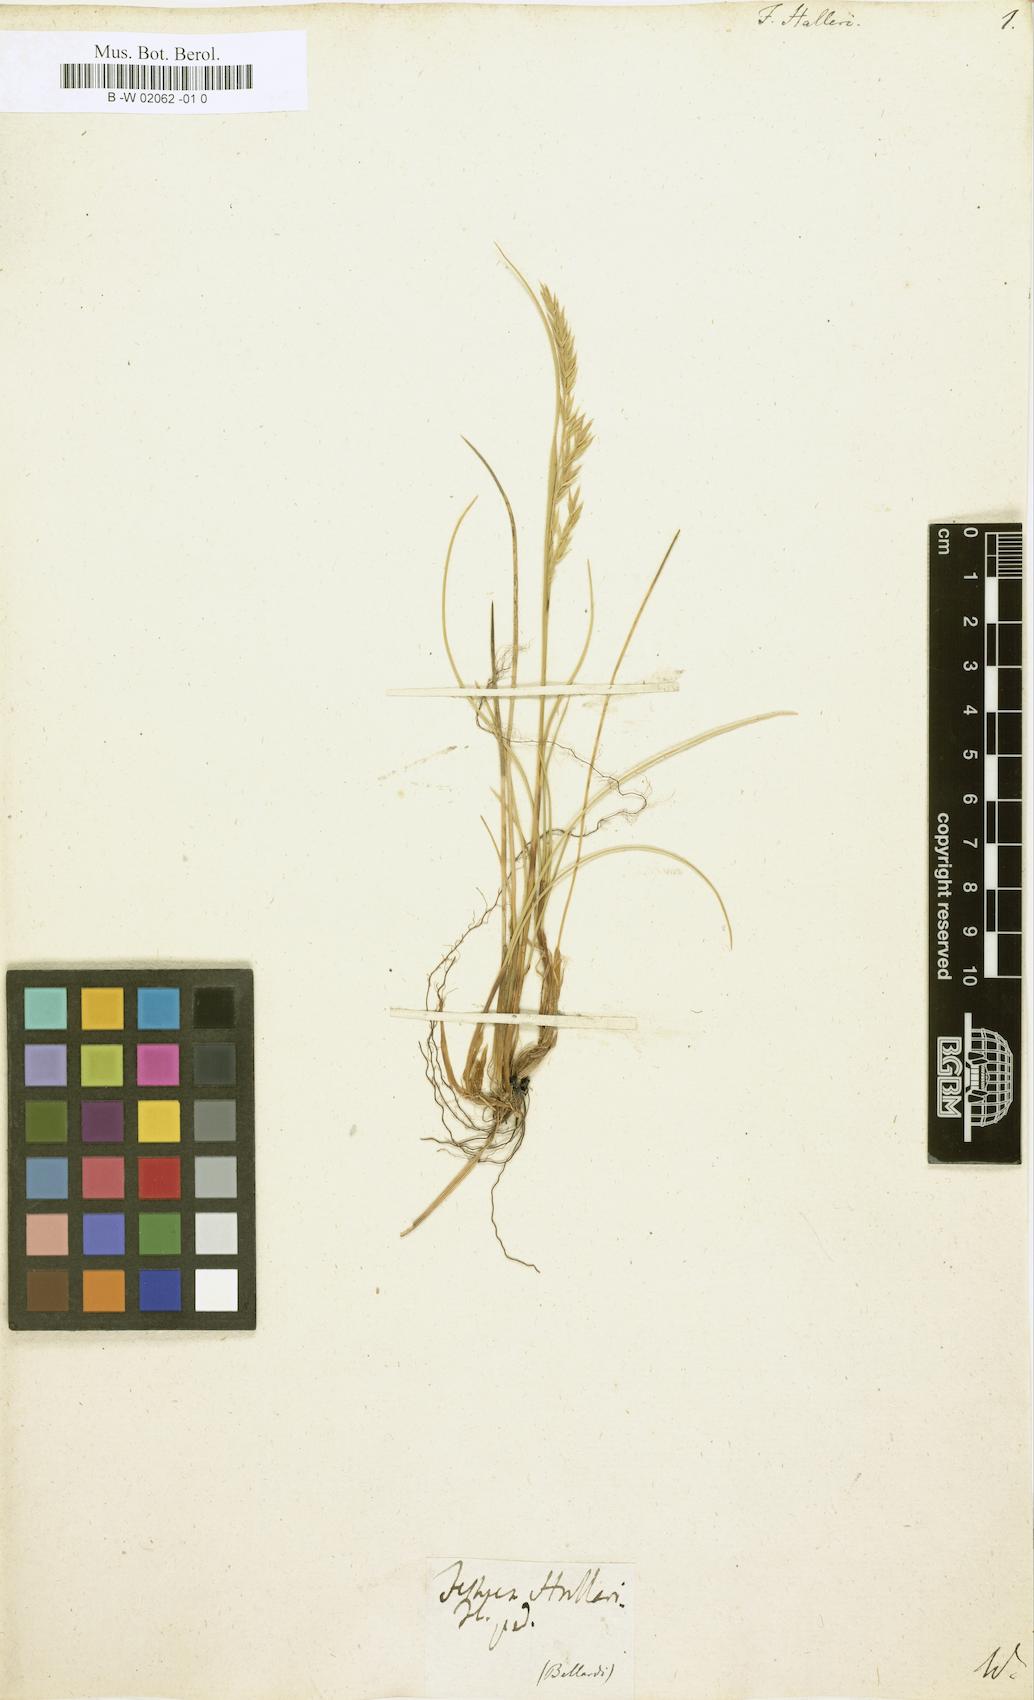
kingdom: Plantae
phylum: Tracheophyta
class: Liliopsida
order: Poales
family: Poaceae
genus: Festuca
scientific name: Festuca halleri
